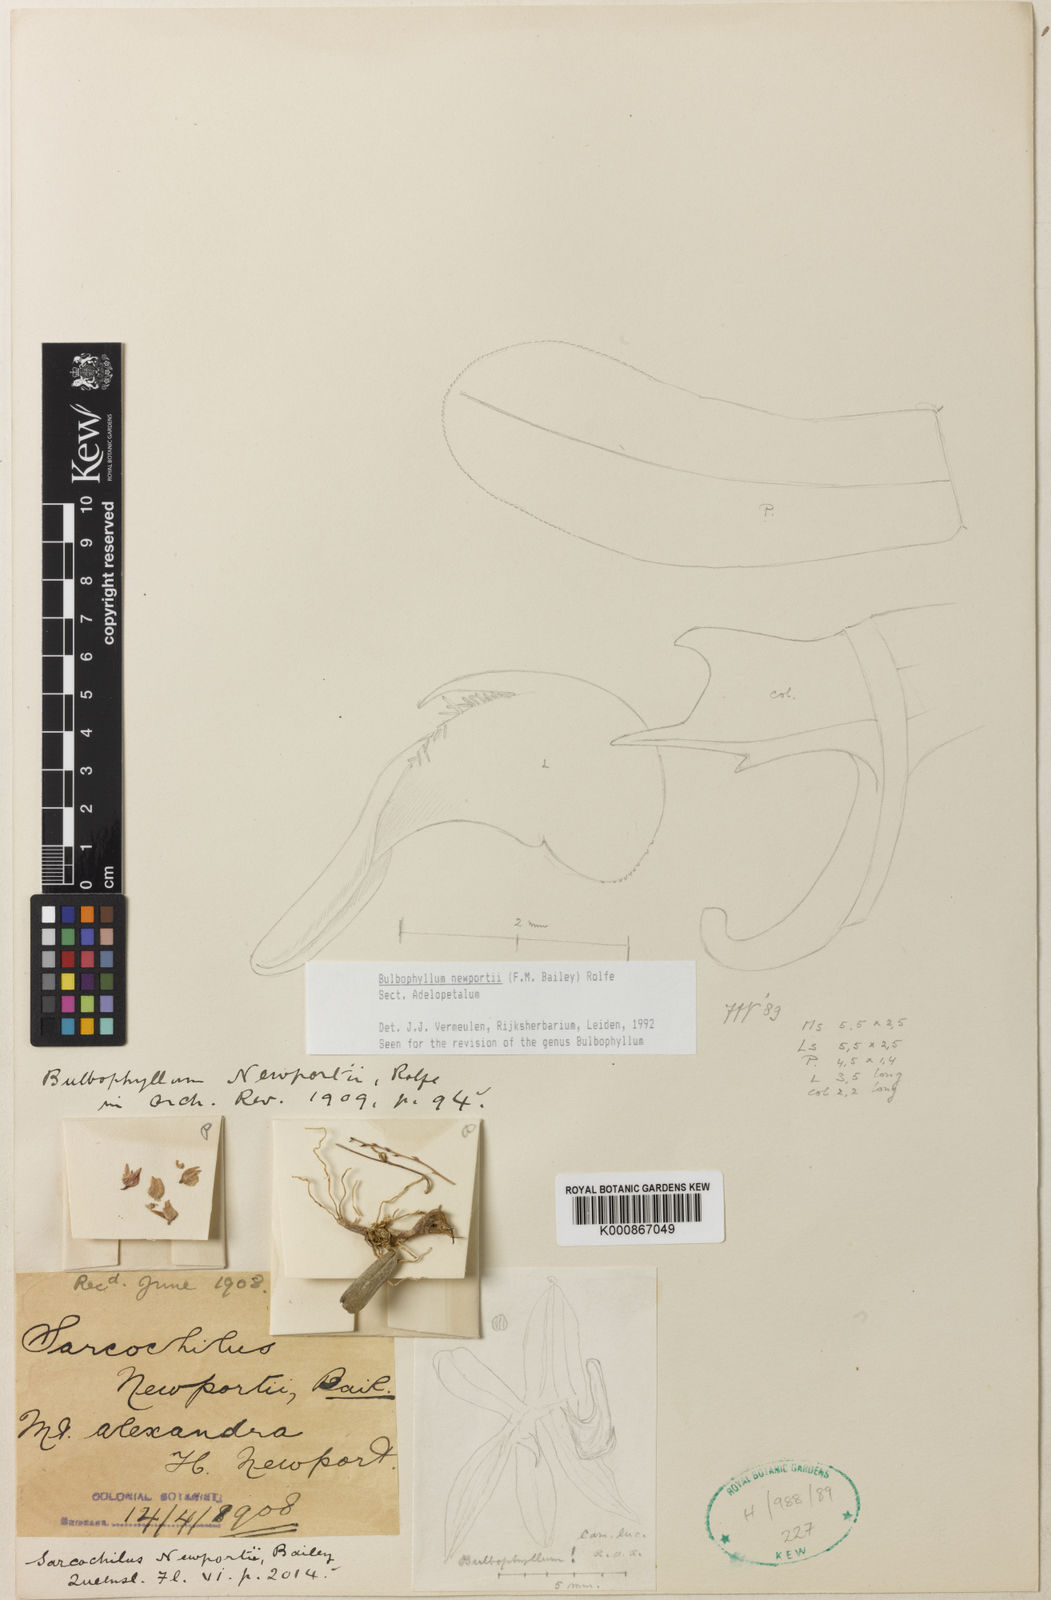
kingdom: Plantae
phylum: Tracheophyta
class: Liliopsida
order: Asparagales
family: Orchidaceae
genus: Bulbophyllum
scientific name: Bulbophyllum
